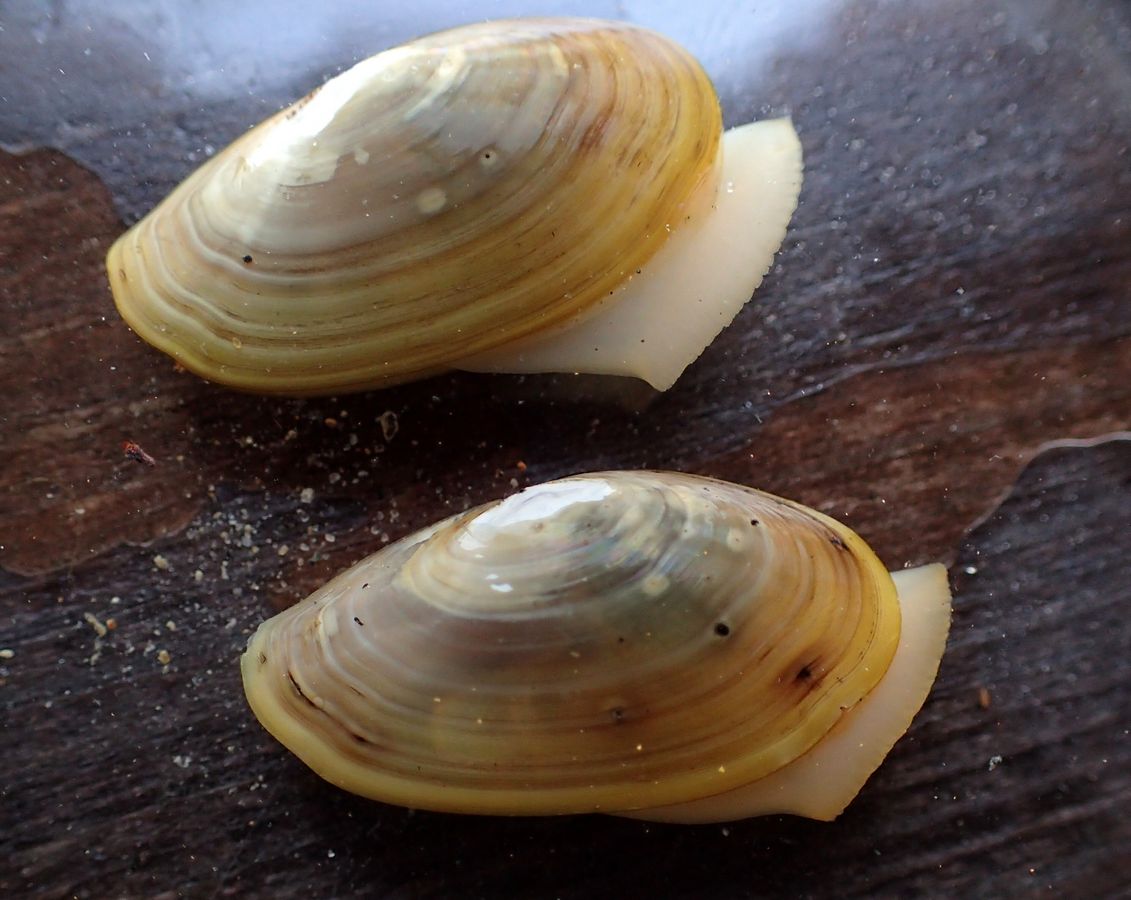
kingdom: Animalia
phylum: Mollusca
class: Bivalvia
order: Nuculanida
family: Yoldiidae
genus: Yoldia
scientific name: Yoldia hyperborea
